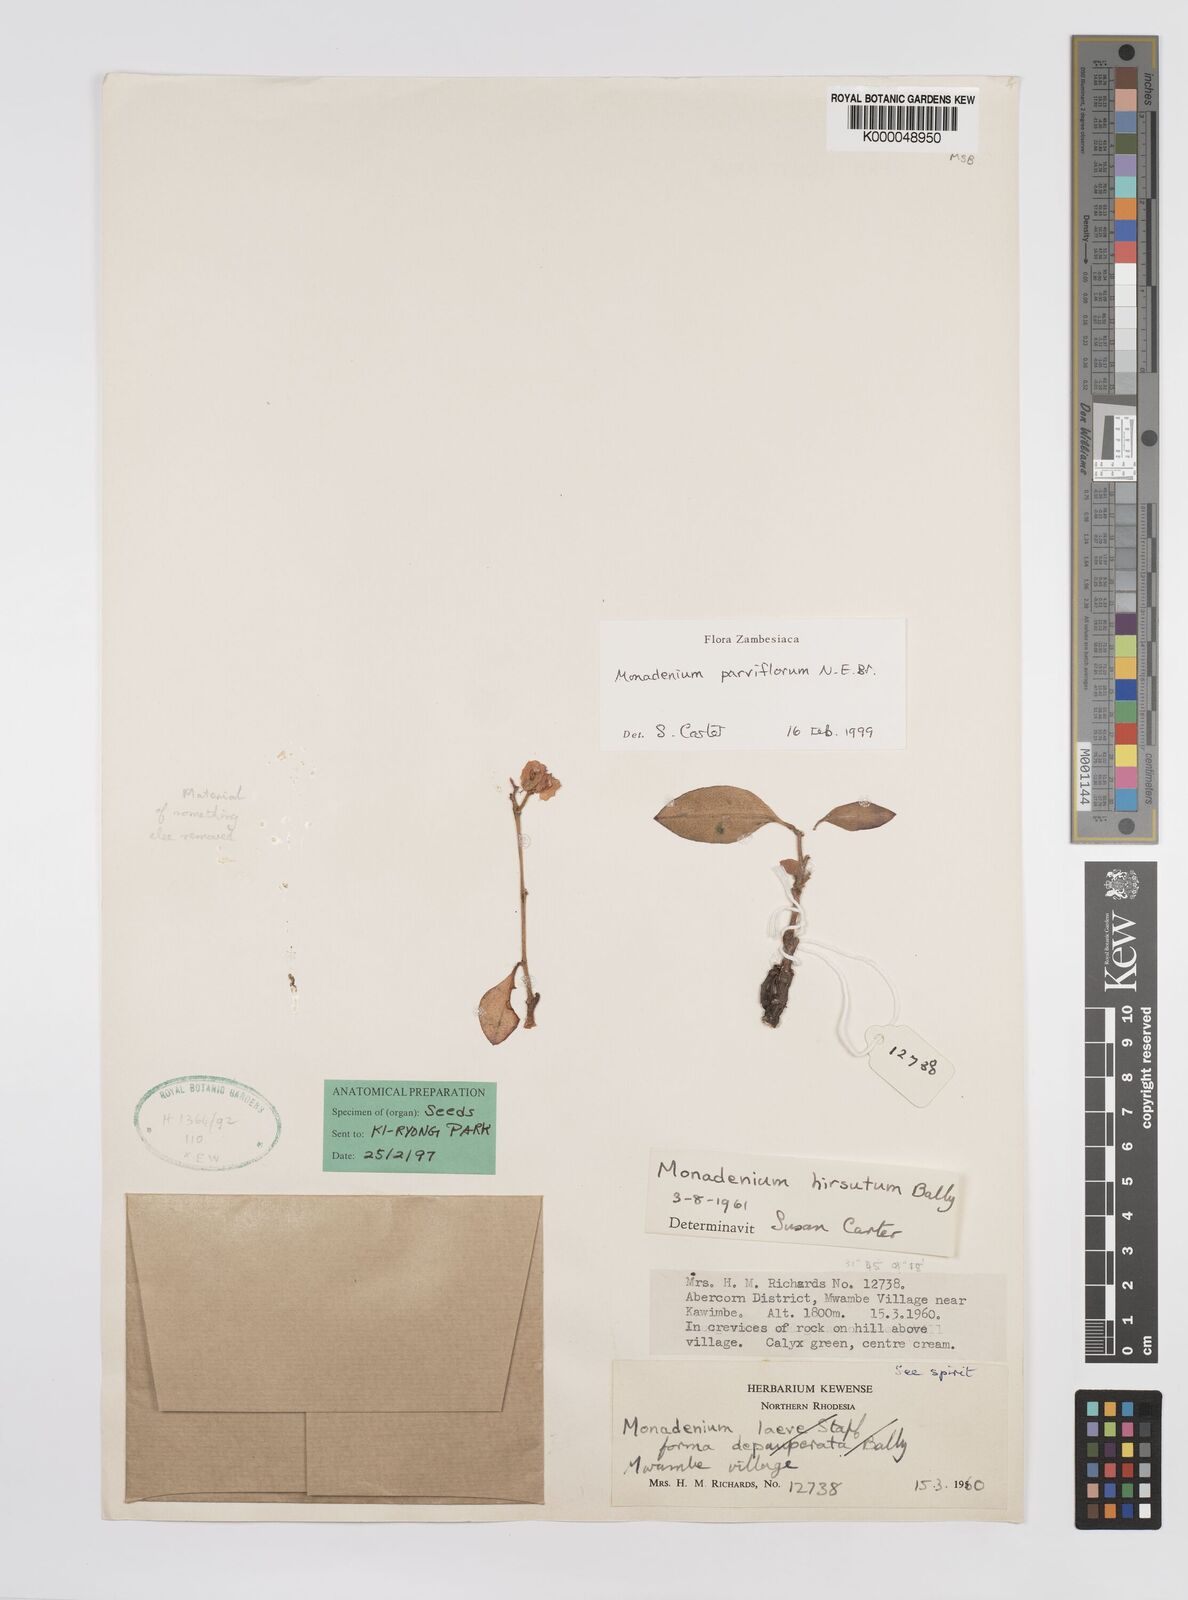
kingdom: Plantae
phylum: Tracheophyta
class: Magnoliopsida
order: Malpighiales
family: Euphorbiaceae
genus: Euphorbia
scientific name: Euphorbia neoparviflora
